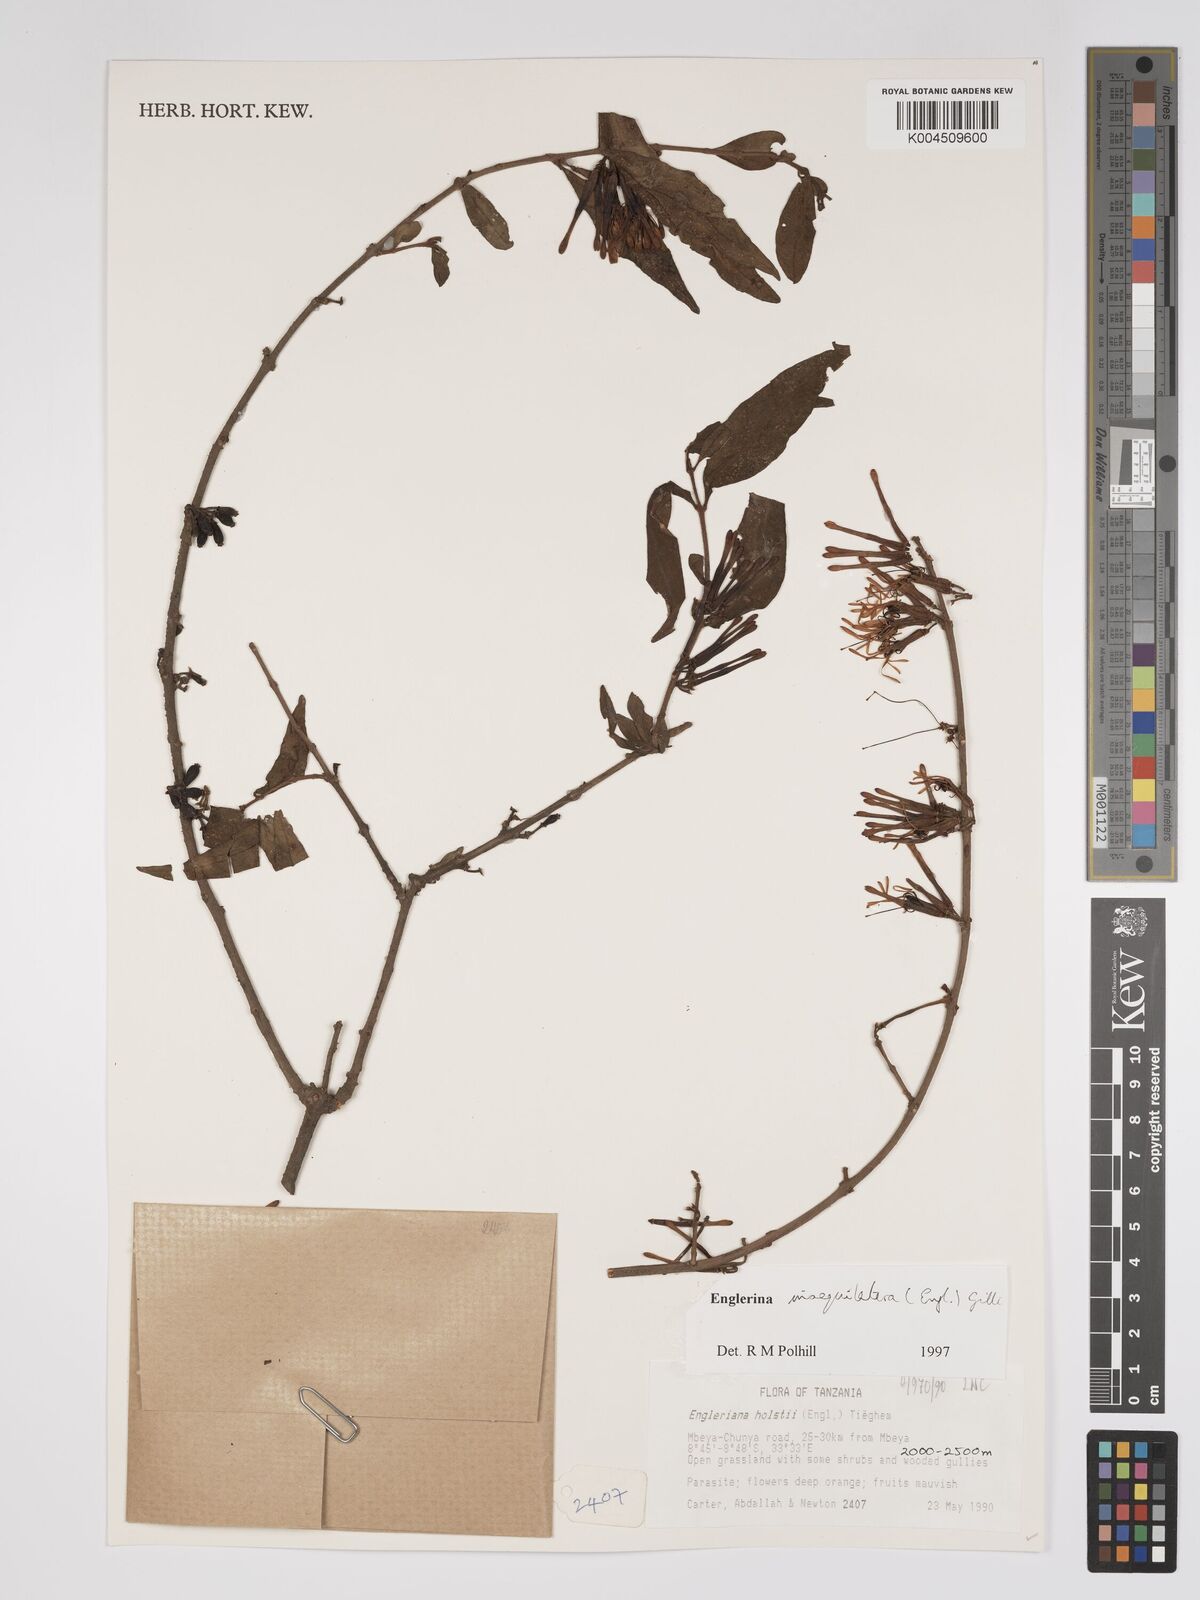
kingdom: Plantae
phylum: Tracheophyta
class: Magnoliopsida
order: Santalales
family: Loranthaceae
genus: Englerina
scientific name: Englerina inaequilatera
